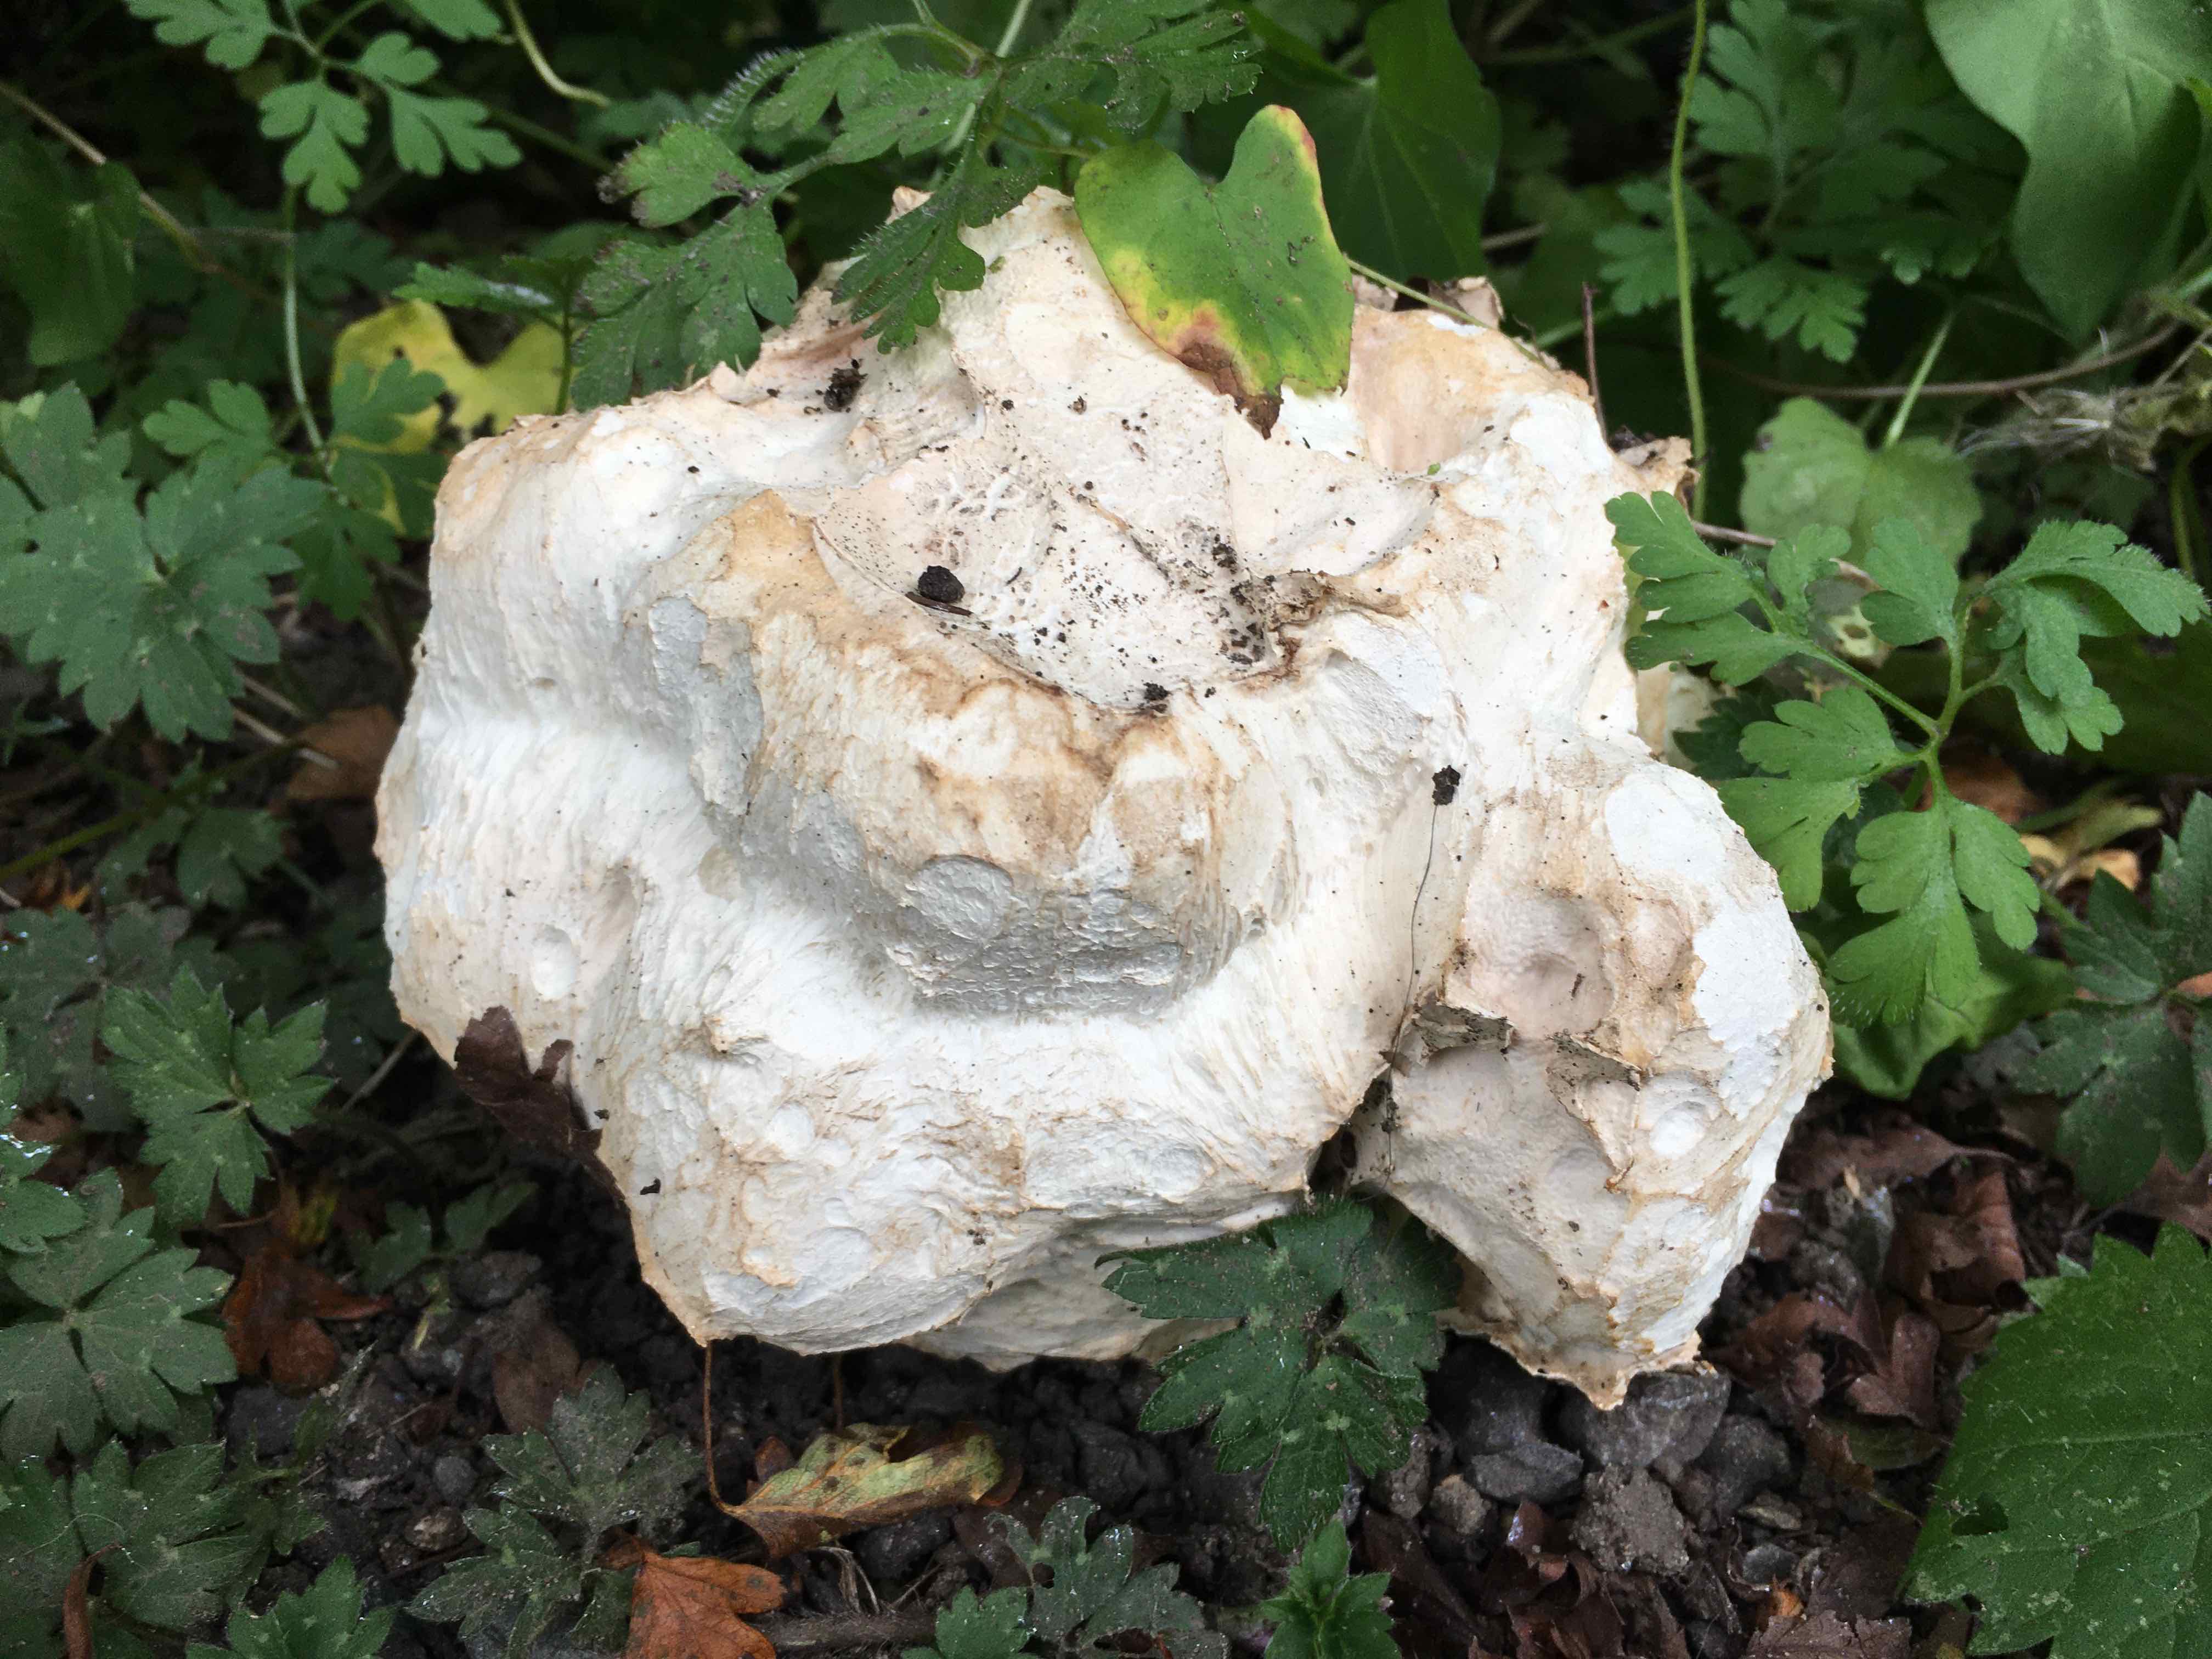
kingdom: Fungi
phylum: Basidiomycota
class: Agaricomycetes
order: Agaricales
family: Lycoperdaceae
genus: Calvatia
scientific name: Calvatia gigantea
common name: kæmpestøvbold
